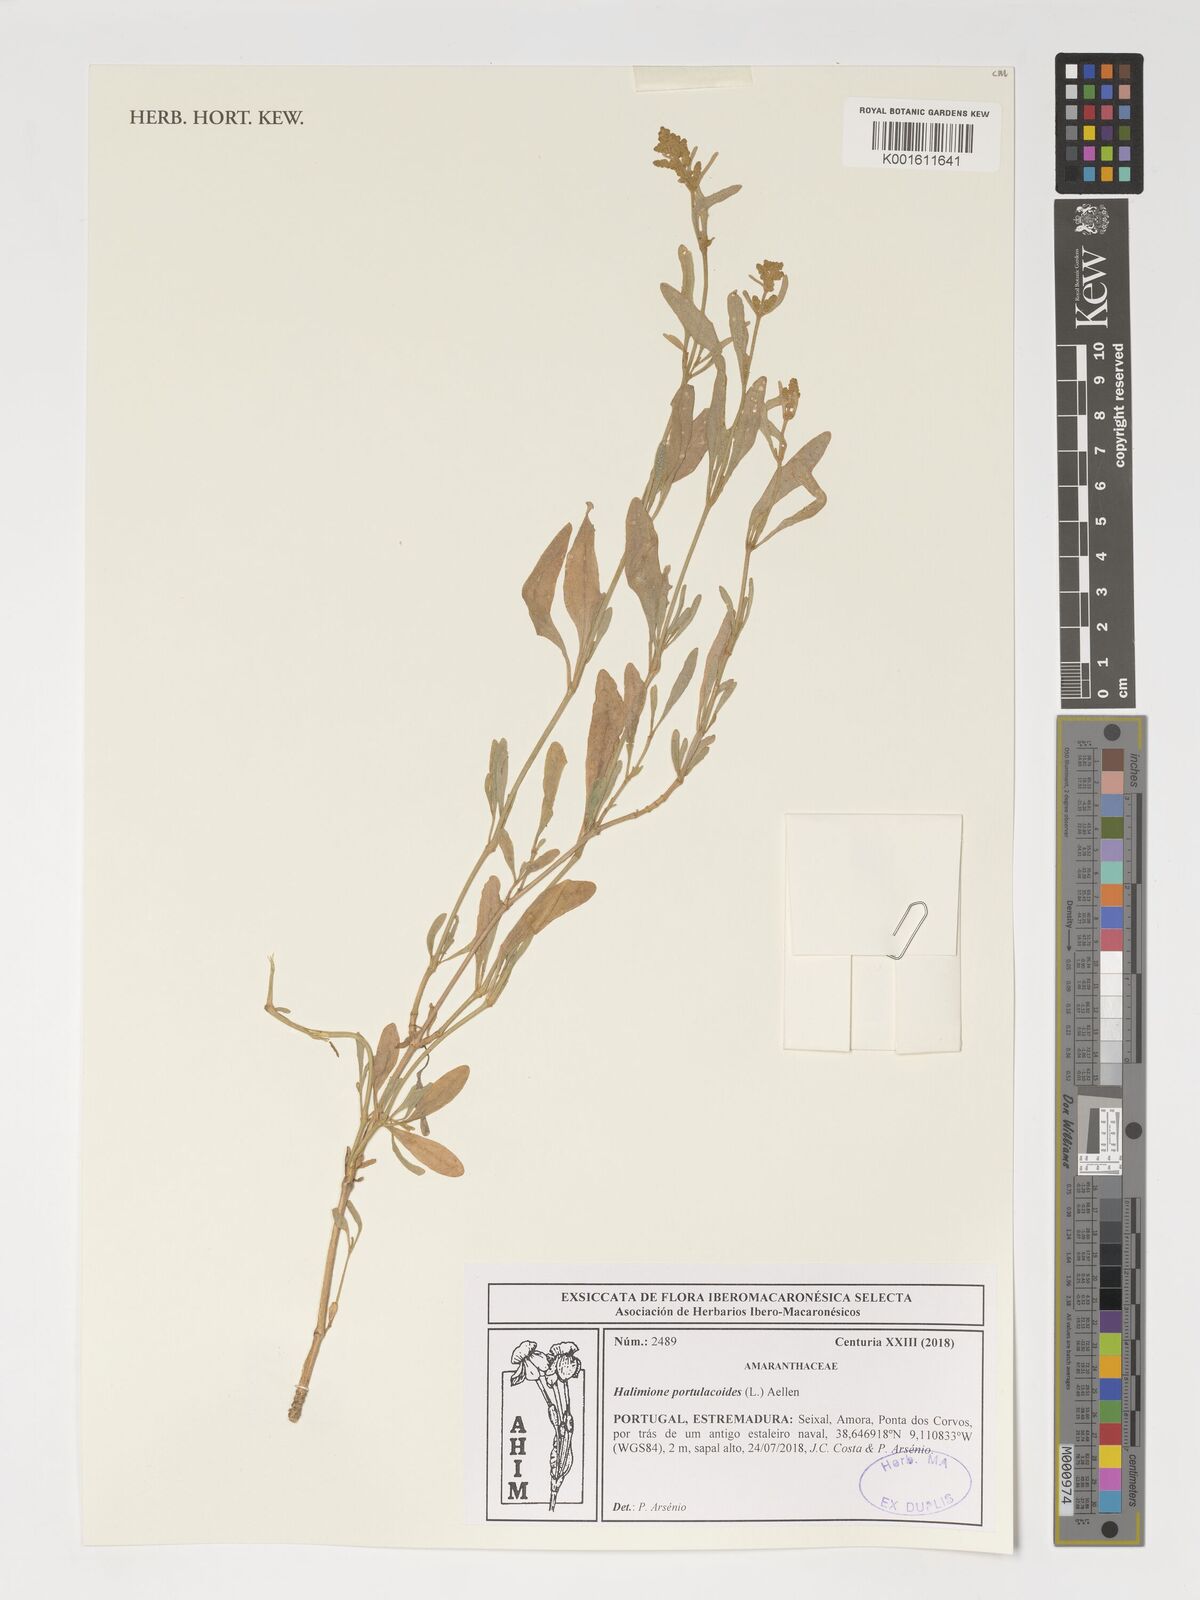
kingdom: Plantae
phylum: Tracheophyta
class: Magnoliopsida
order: Caryophyllales
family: Amaranthaceae
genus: Halimione
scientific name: Halimione portulacoides
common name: Sea-purslane
